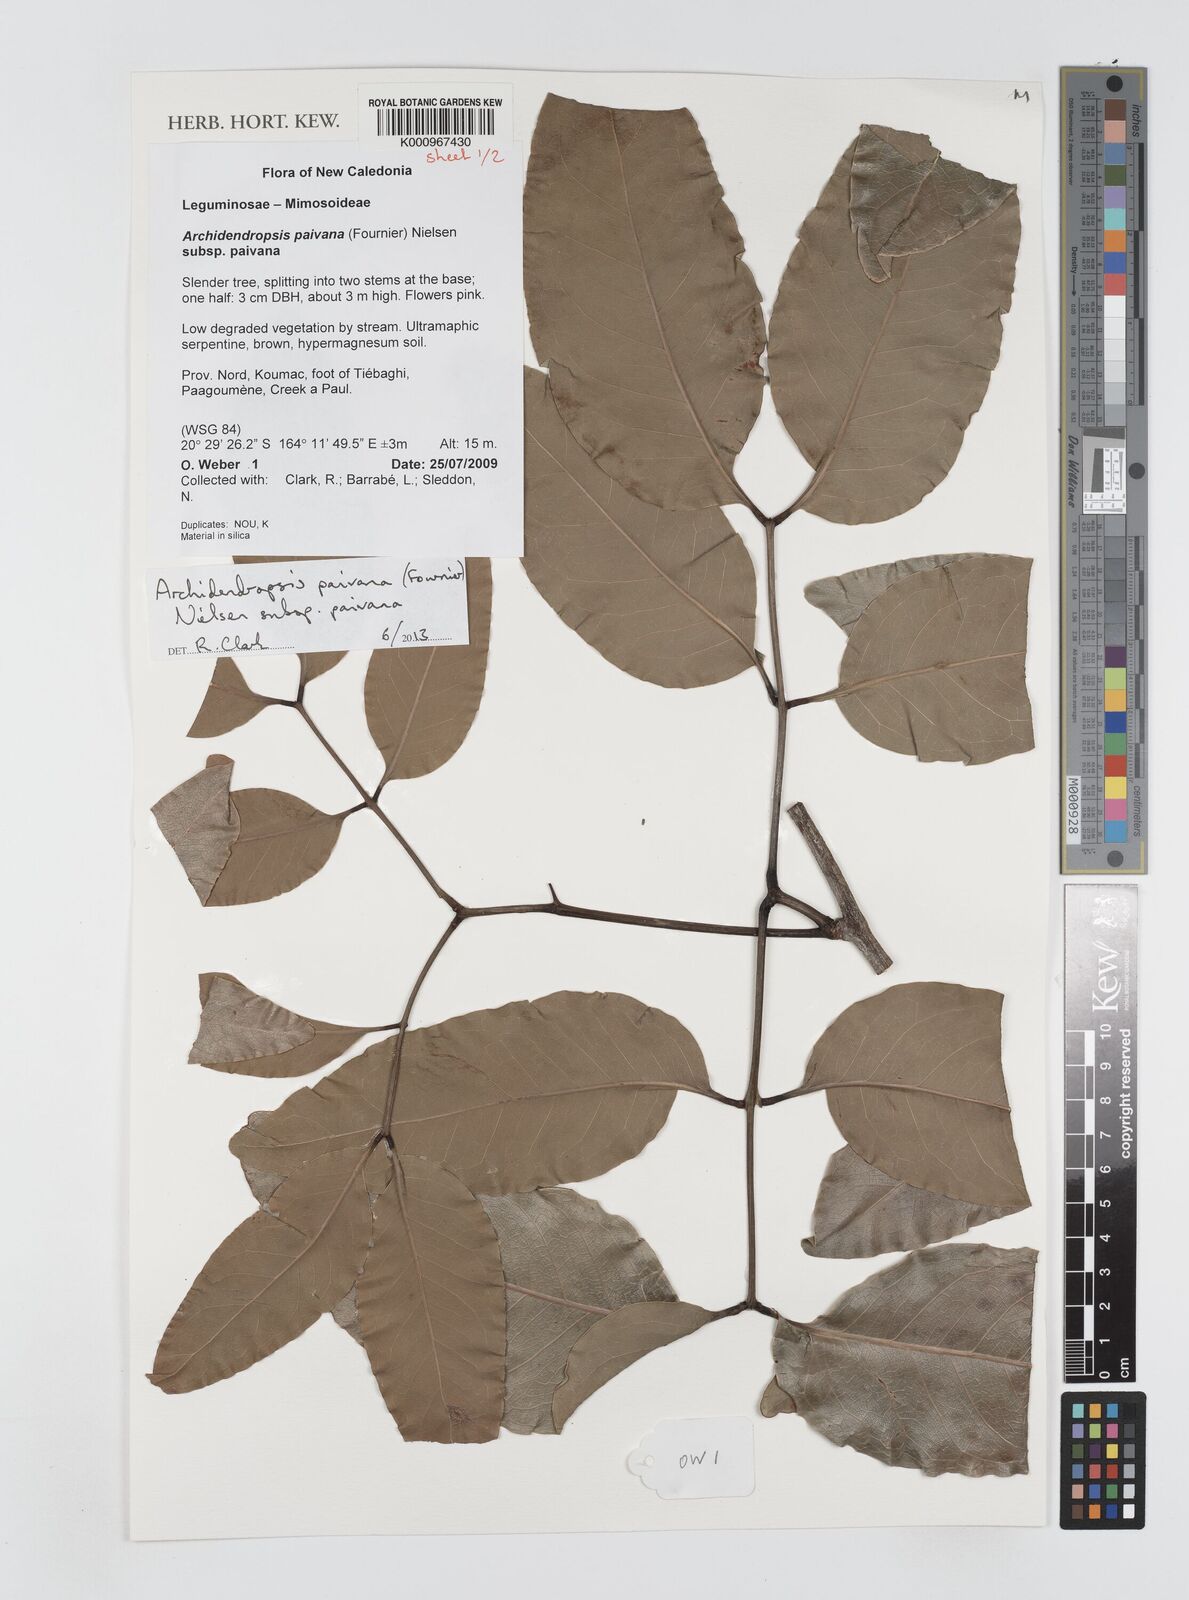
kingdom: Plantae
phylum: Tracheophyta
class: Magnoliopsida
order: Fabales
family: Fabaceae
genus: Archidendropsis
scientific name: Archidendropsis paivana
